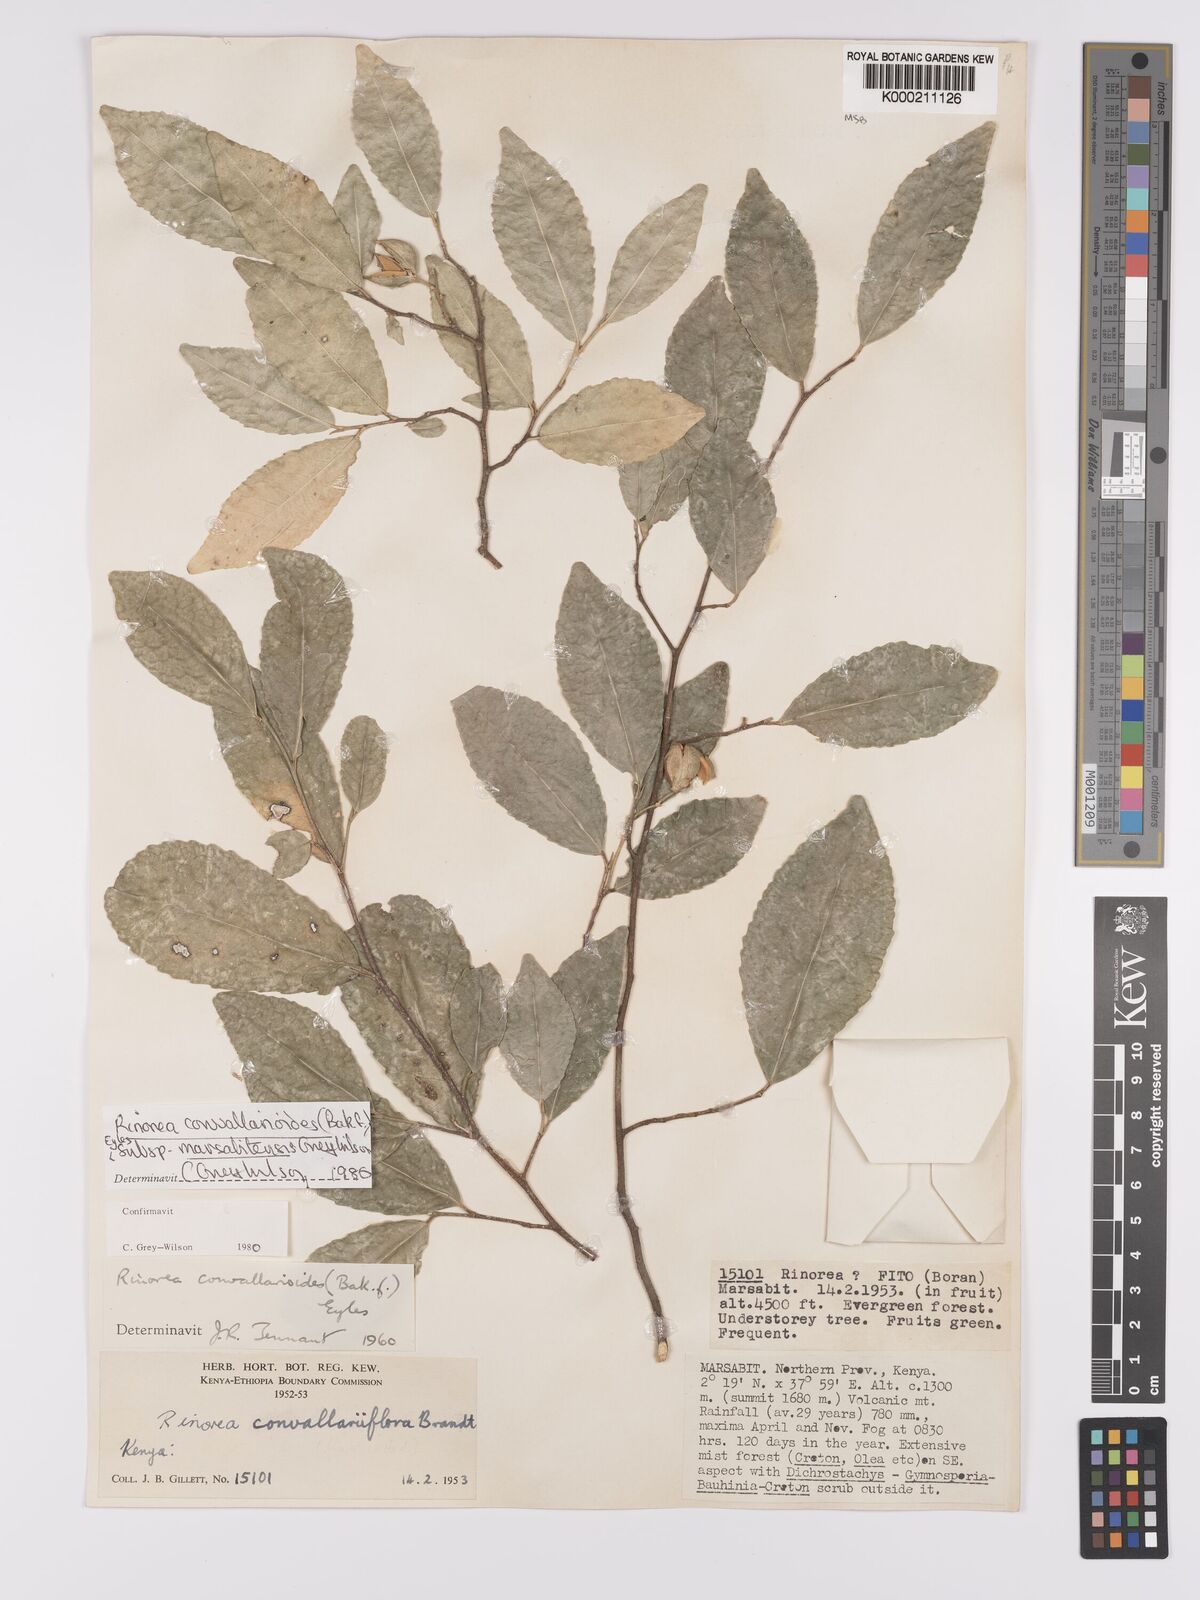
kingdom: Plantae
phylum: Tracheophyta
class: Magnoliopsida
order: Malpighiales
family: Violaceae
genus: Rinorea
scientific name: Rinorea convallarioides
